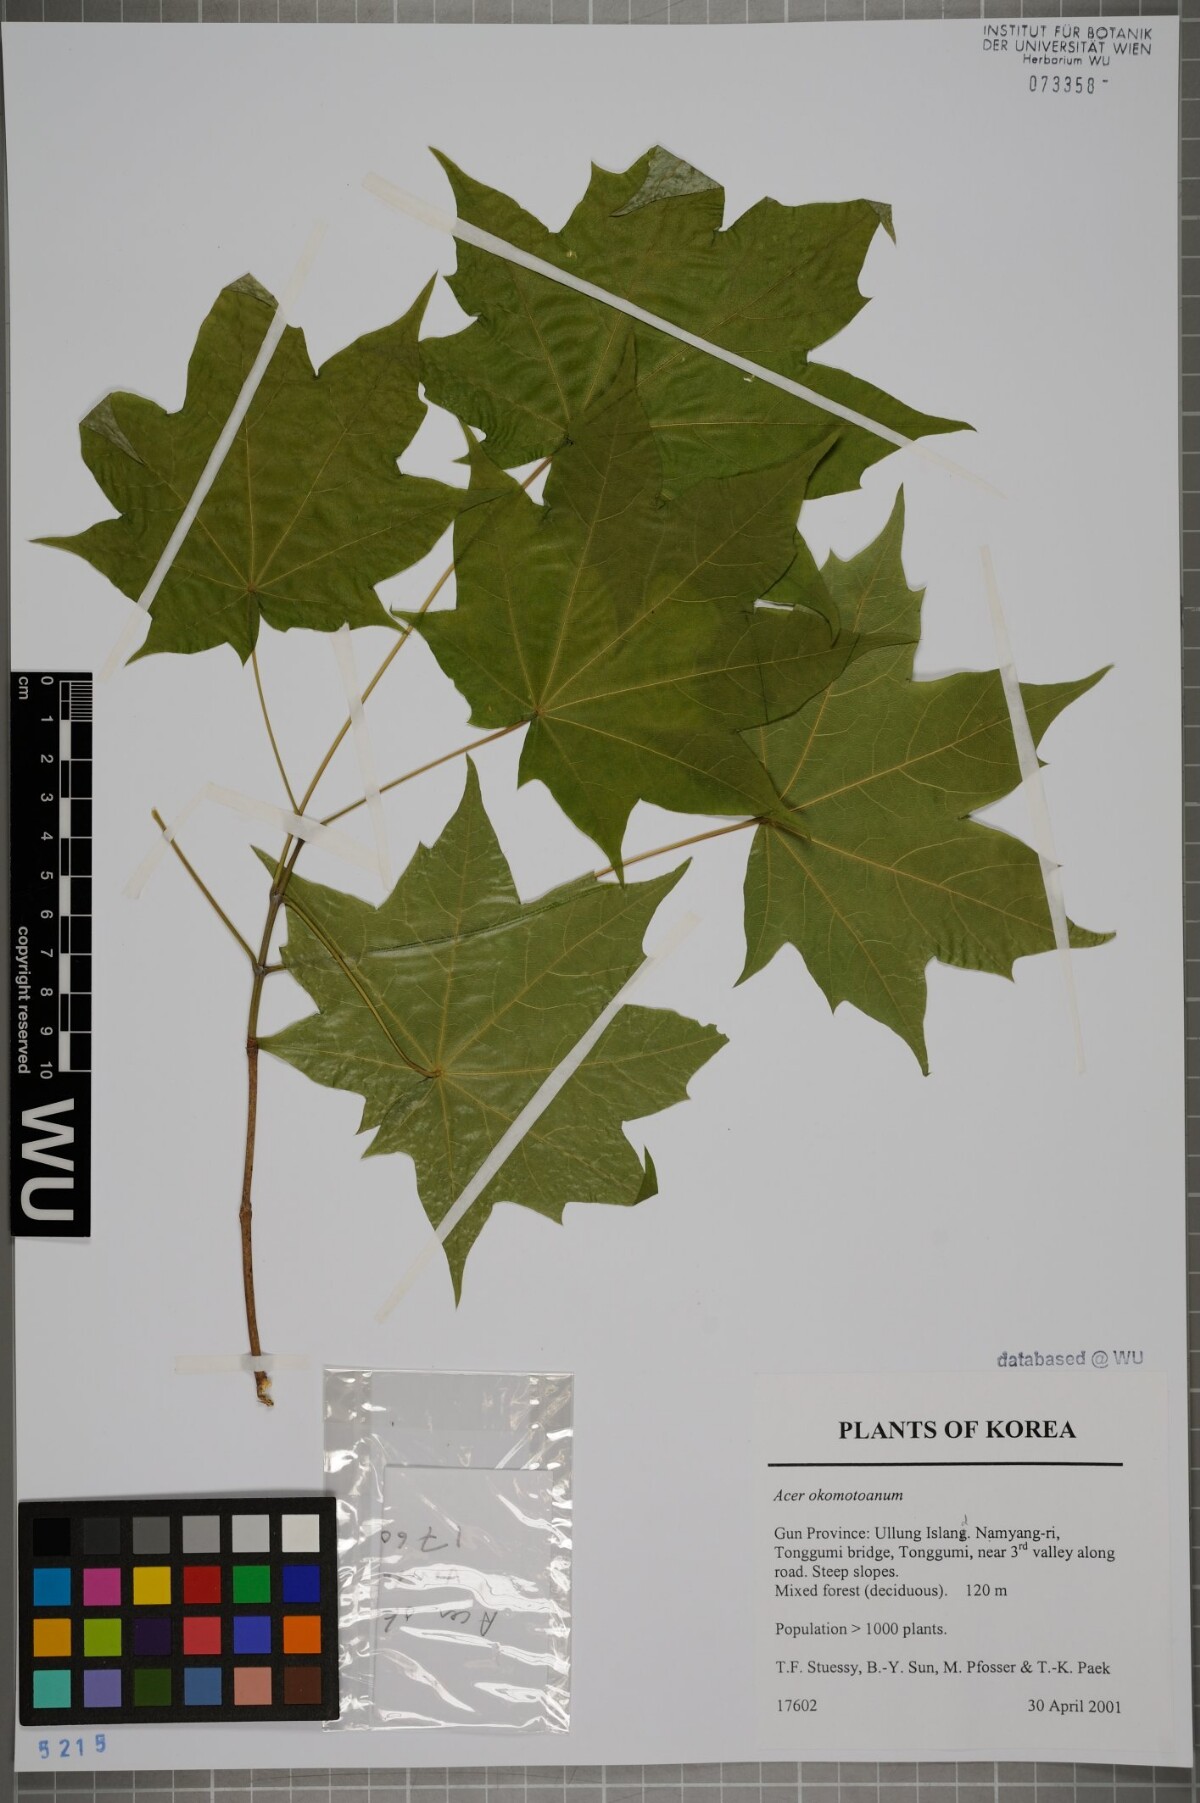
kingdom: Plantae
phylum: Tracheophyta
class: Magnoliopsida
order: Sapindales
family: Sapindaceae
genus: Acer
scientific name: Acer pictum
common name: The painted maple
